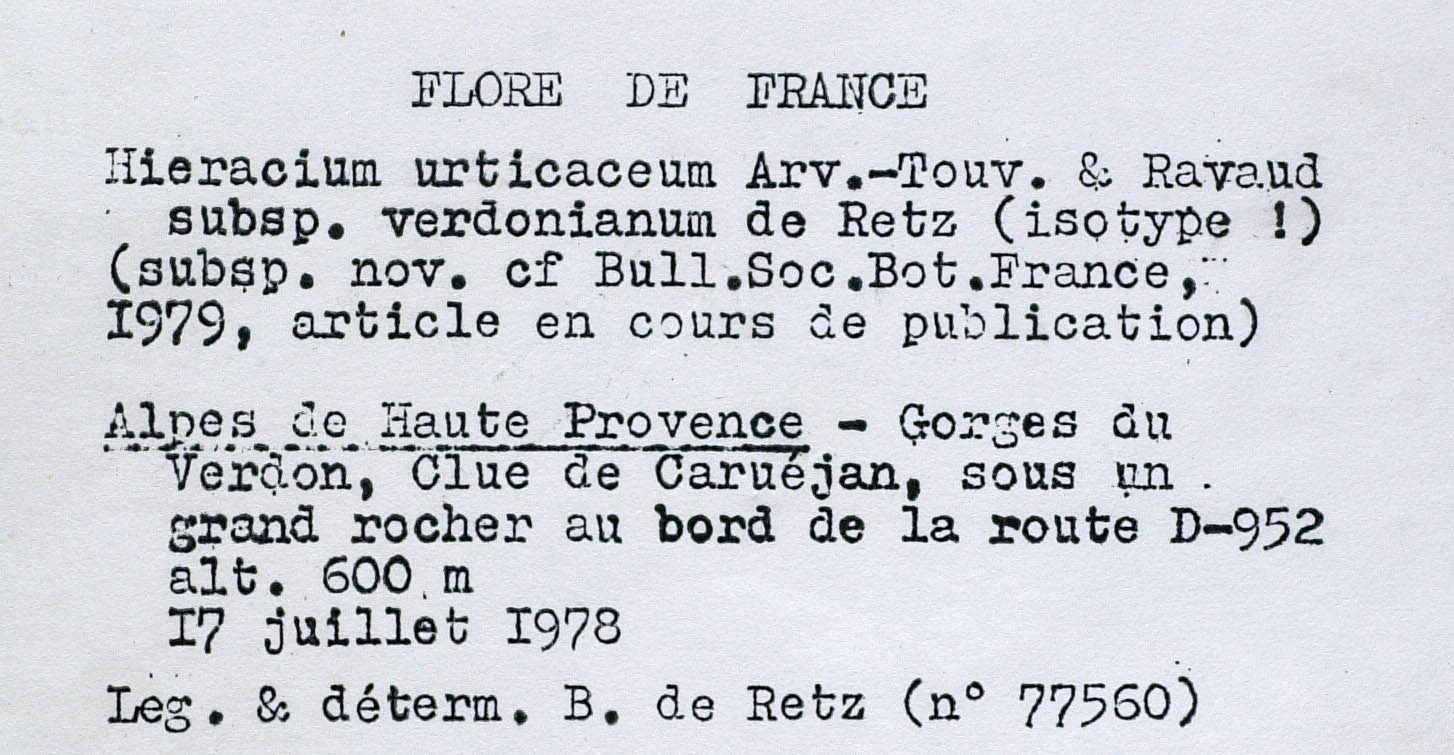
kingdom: Plantae
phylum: Tracheophyta
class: Magnoliopsida
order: Asterales
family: Asteraceae
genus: Hieracium
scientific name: Hieracium urticaceum
